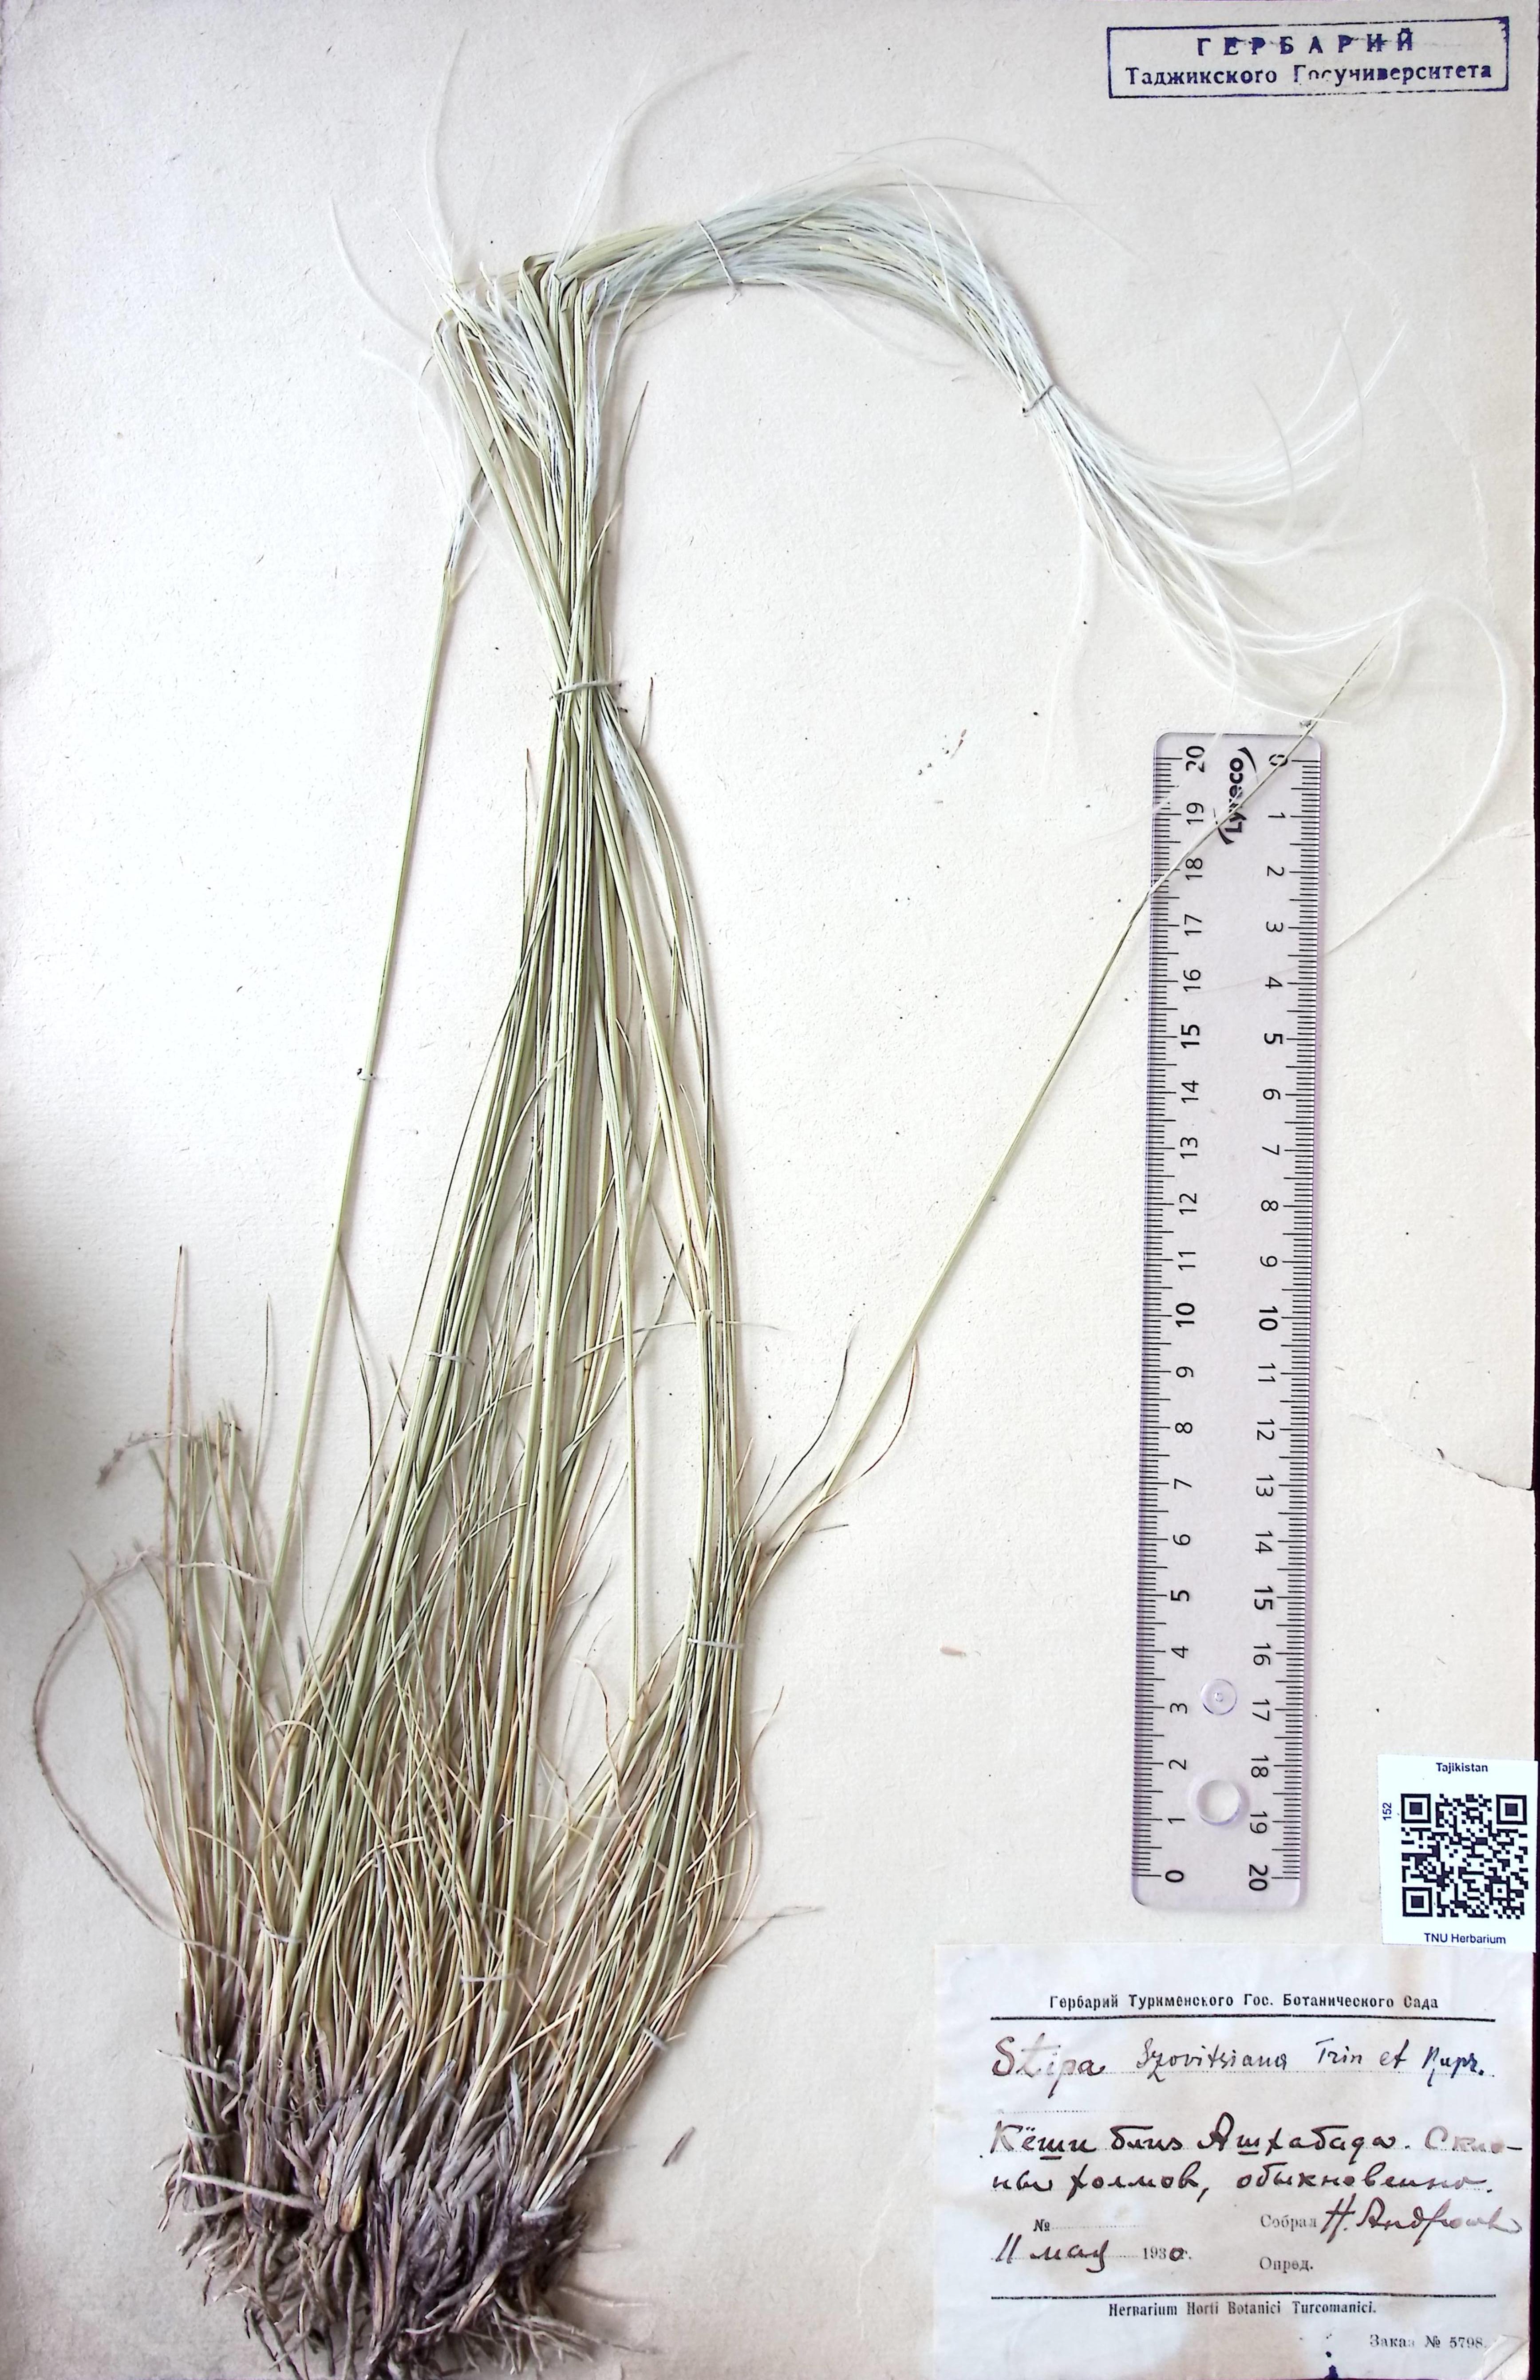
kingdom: Plantae
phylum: Tracheophyta
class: Liliopsida
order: Poales
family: Poaceae
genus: Stipa
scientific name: Stipa szowitsiana
